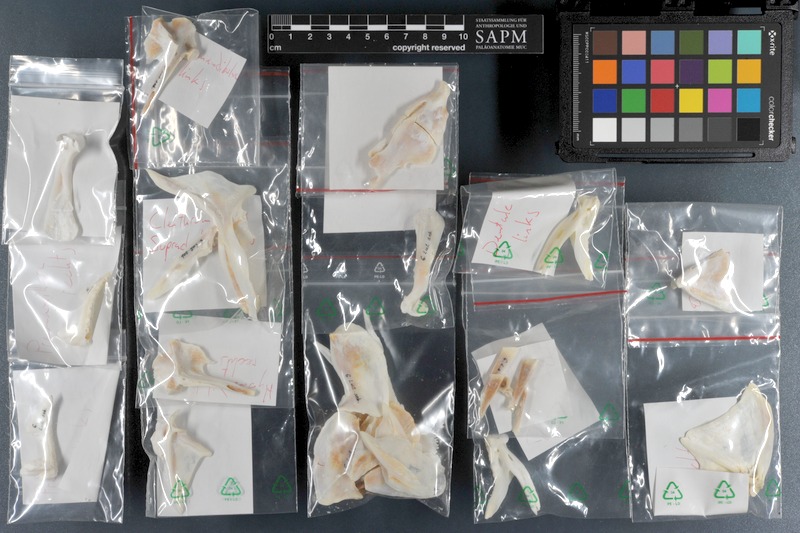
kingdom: Animalia
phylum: Chordata
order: Perciformes
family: Lutjanidae
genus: Lutjanus
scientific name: Lutjanus sebae
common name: Emperor red snapper
